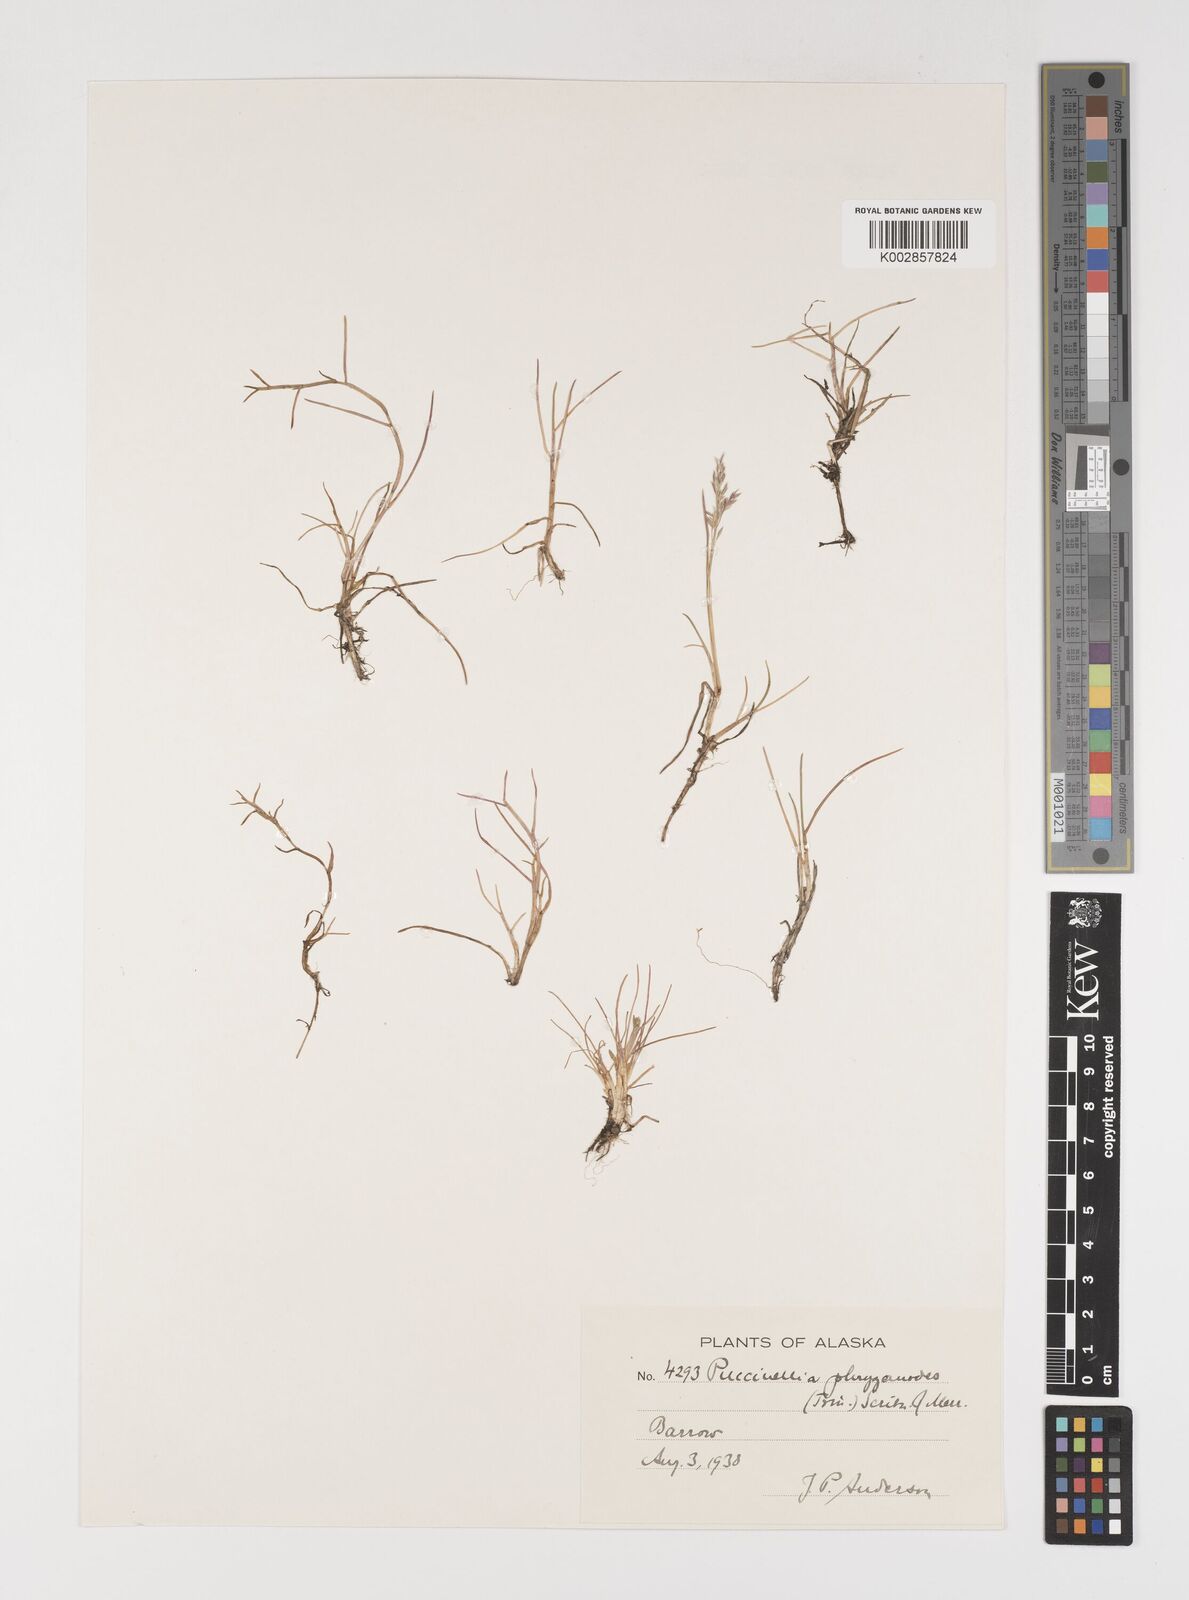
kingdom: Plantae
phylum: Tracheophyta
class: Liliopsida
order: Poales
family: Poaceae
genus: Puccinellia
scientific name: Puccinellia phryganodes
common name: Creeping alkaligrass
